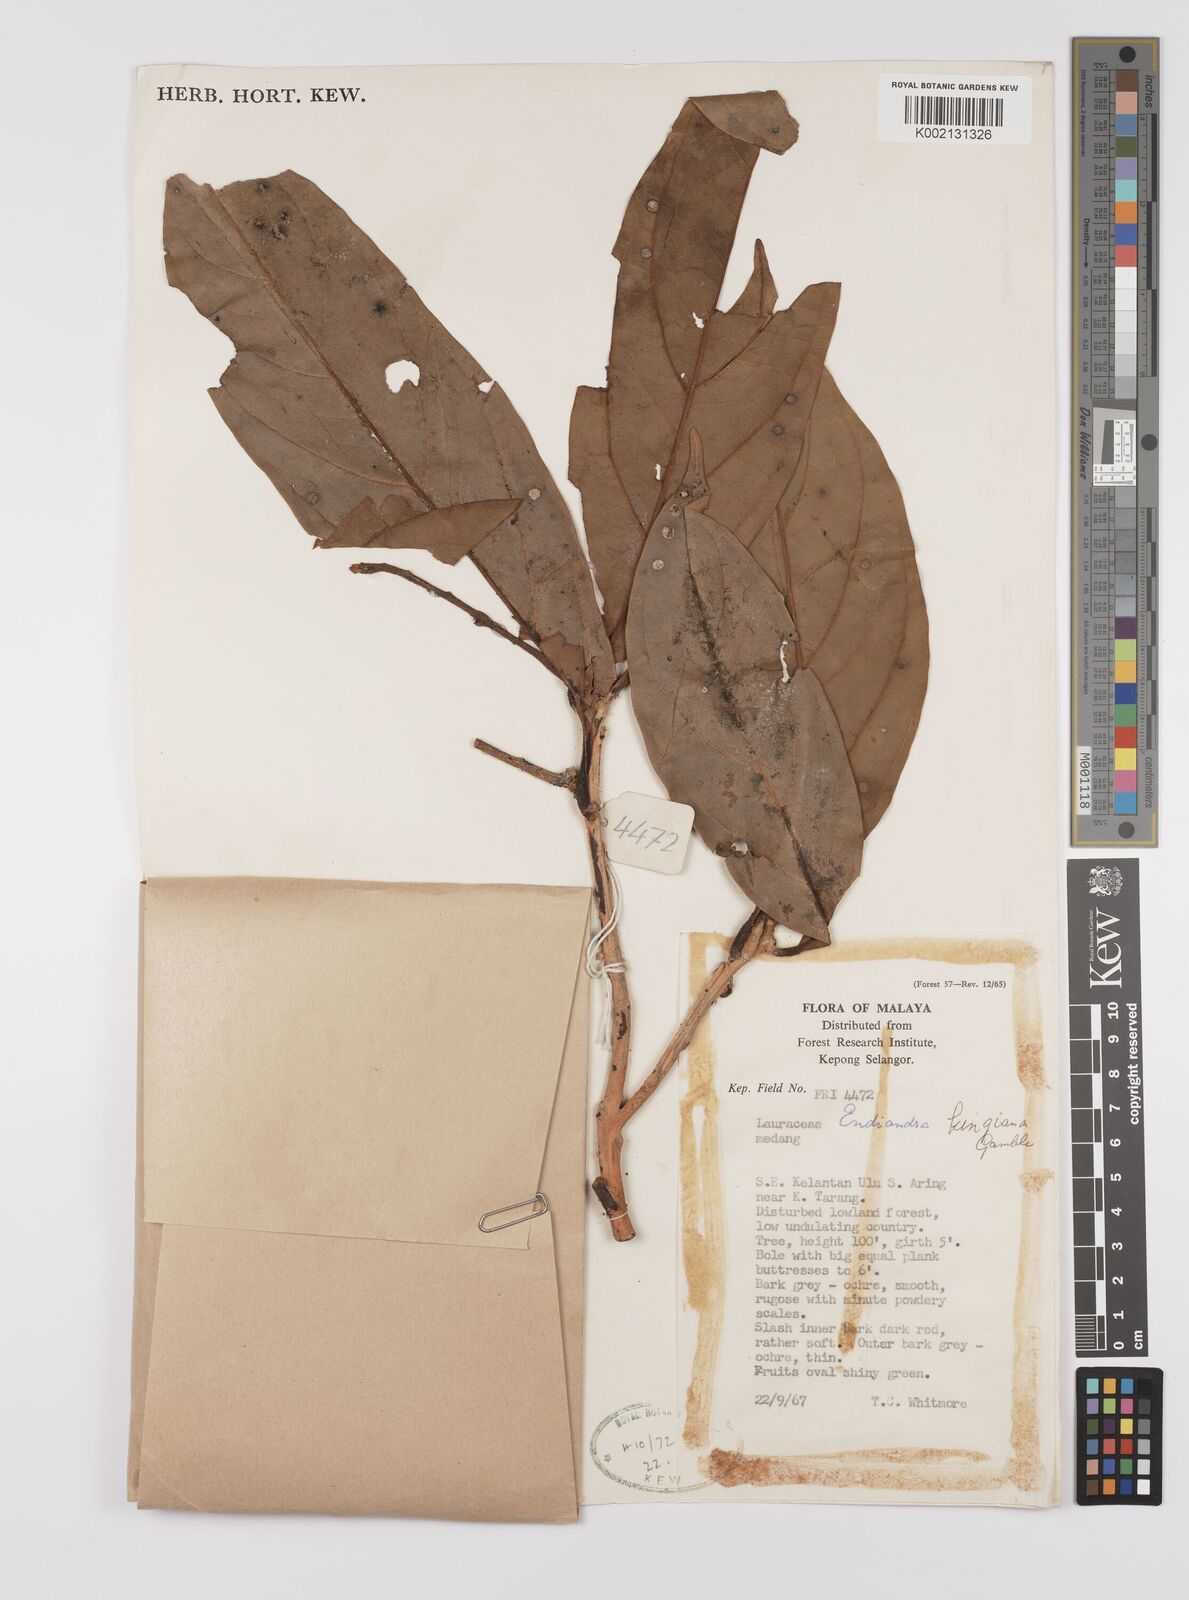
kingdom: Plantae
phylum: Tracheophyta
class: Magnoliopsida
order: Laurales
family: Lauraceae
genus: Endiandra
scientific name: Endiandra kingiana
